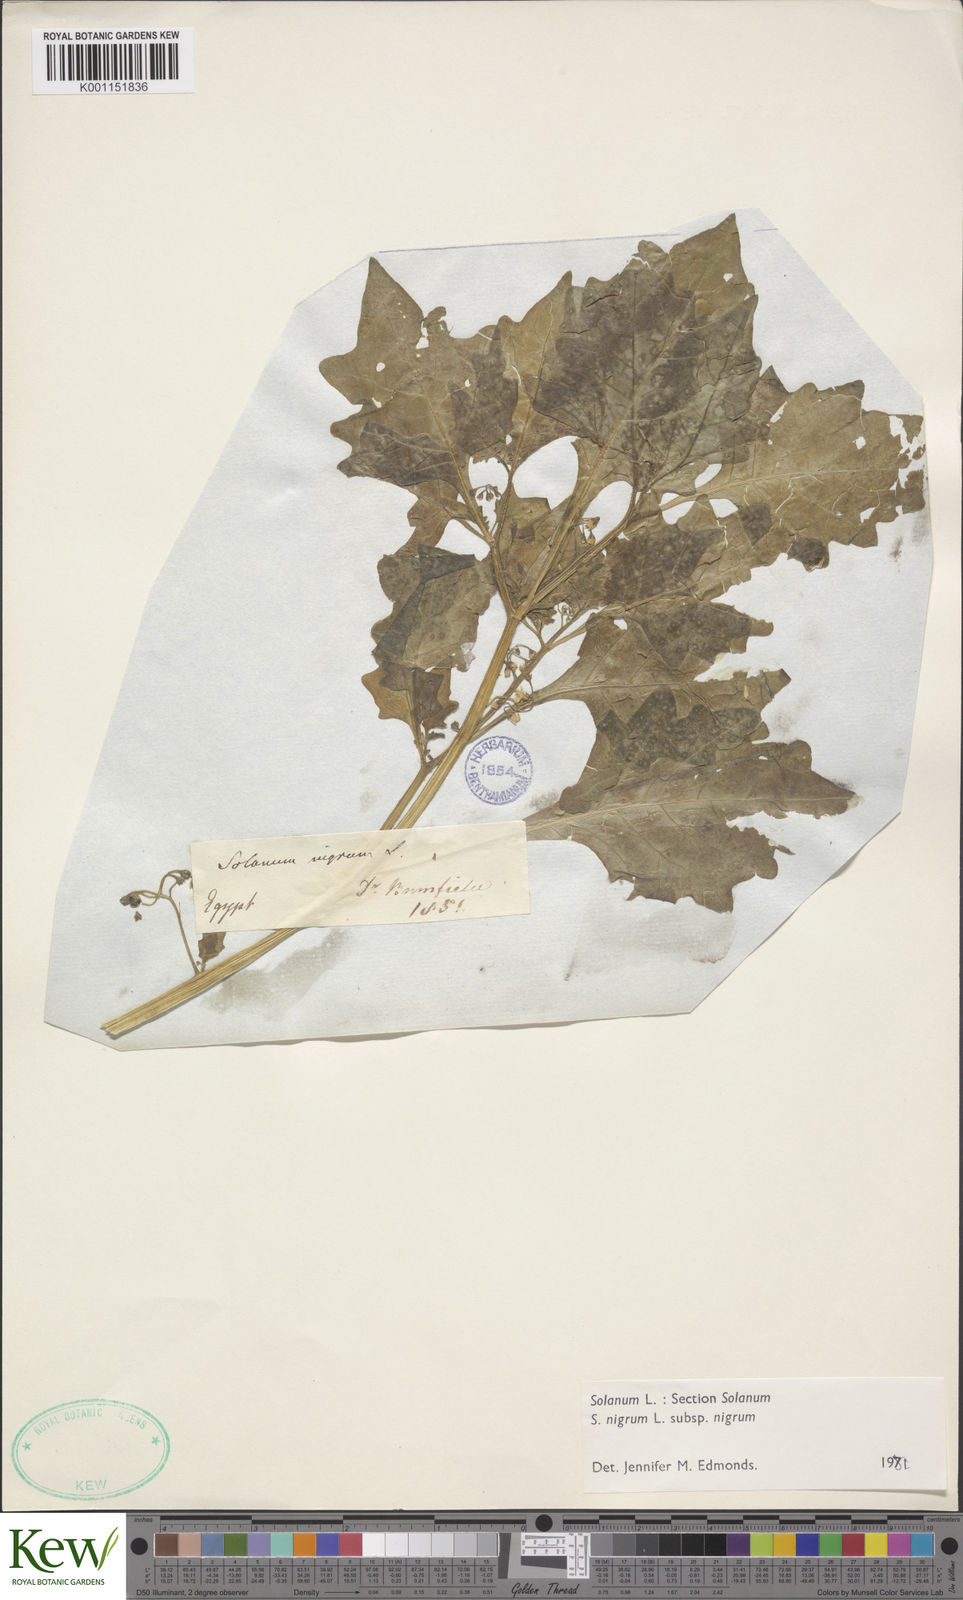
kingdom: Plantae
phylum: Tracheophyta
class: Magnoliopsida
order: Solanales
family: Solanaceae
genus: Solanum
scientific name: Solanum nigrum
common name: Black nightshade
